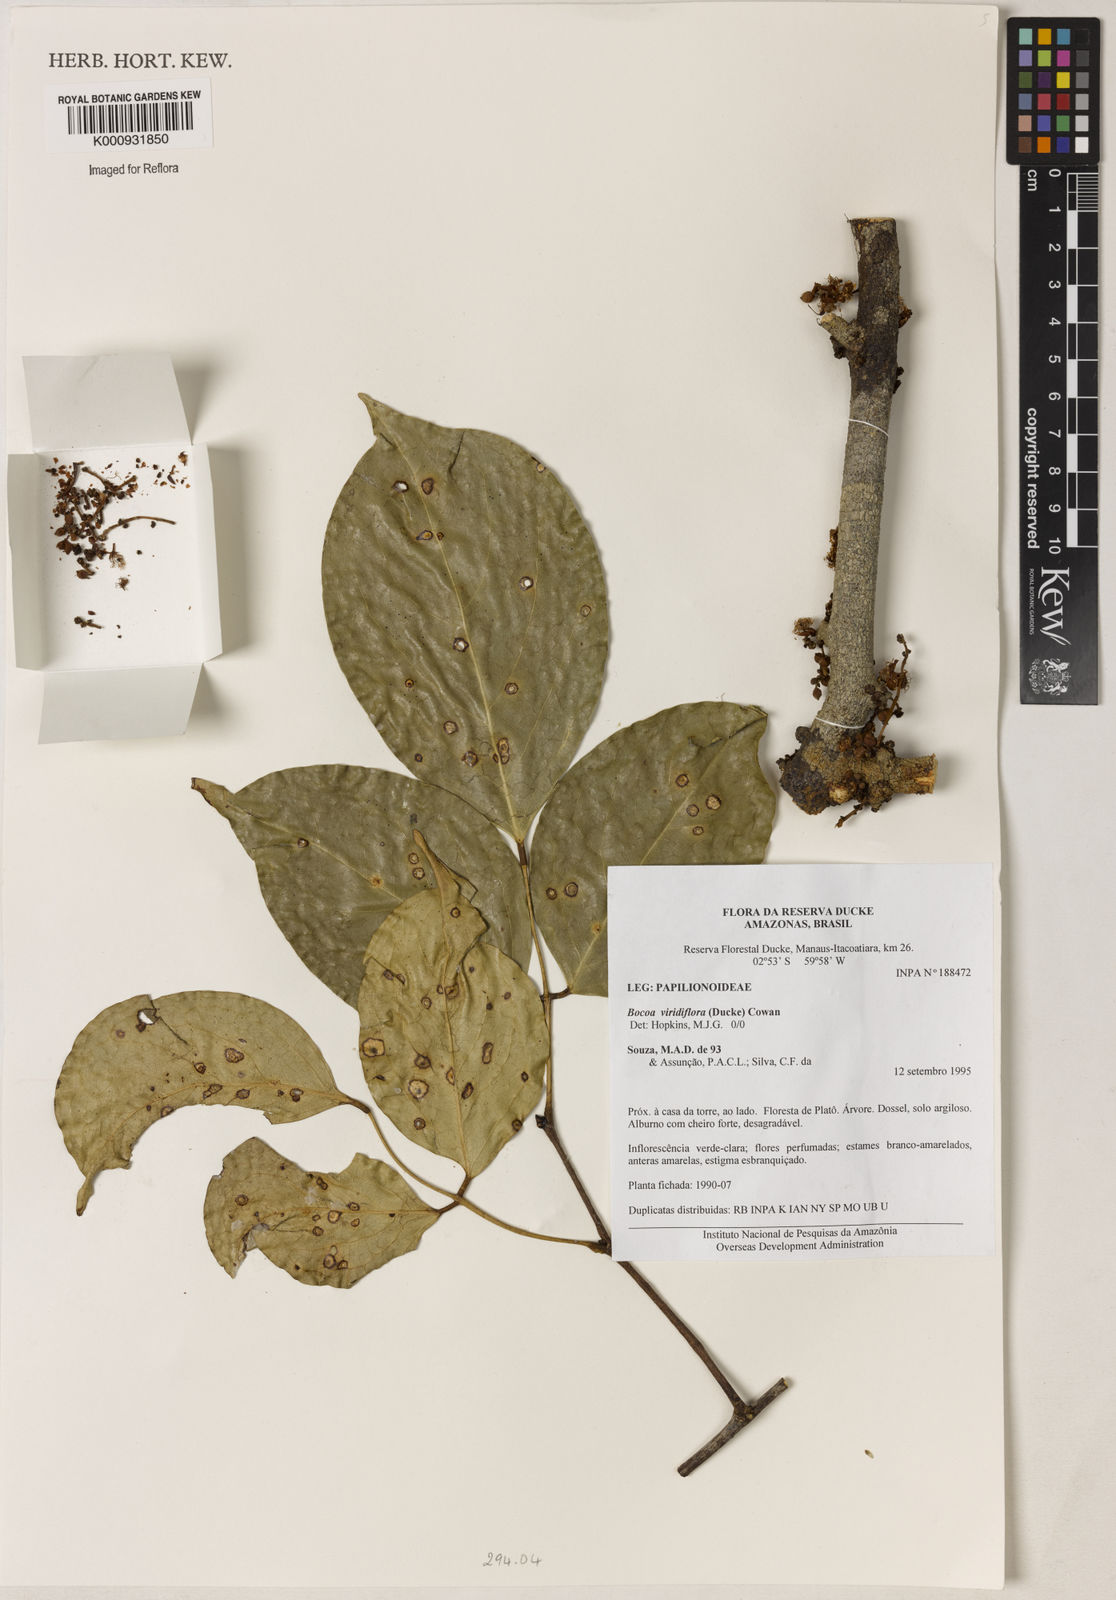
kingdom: Plantae
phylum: Tracheophyta
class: Magnoliopsida
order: Fabales
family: Fabaceae
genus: Bocoa
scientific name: Bocoa viridiflora
